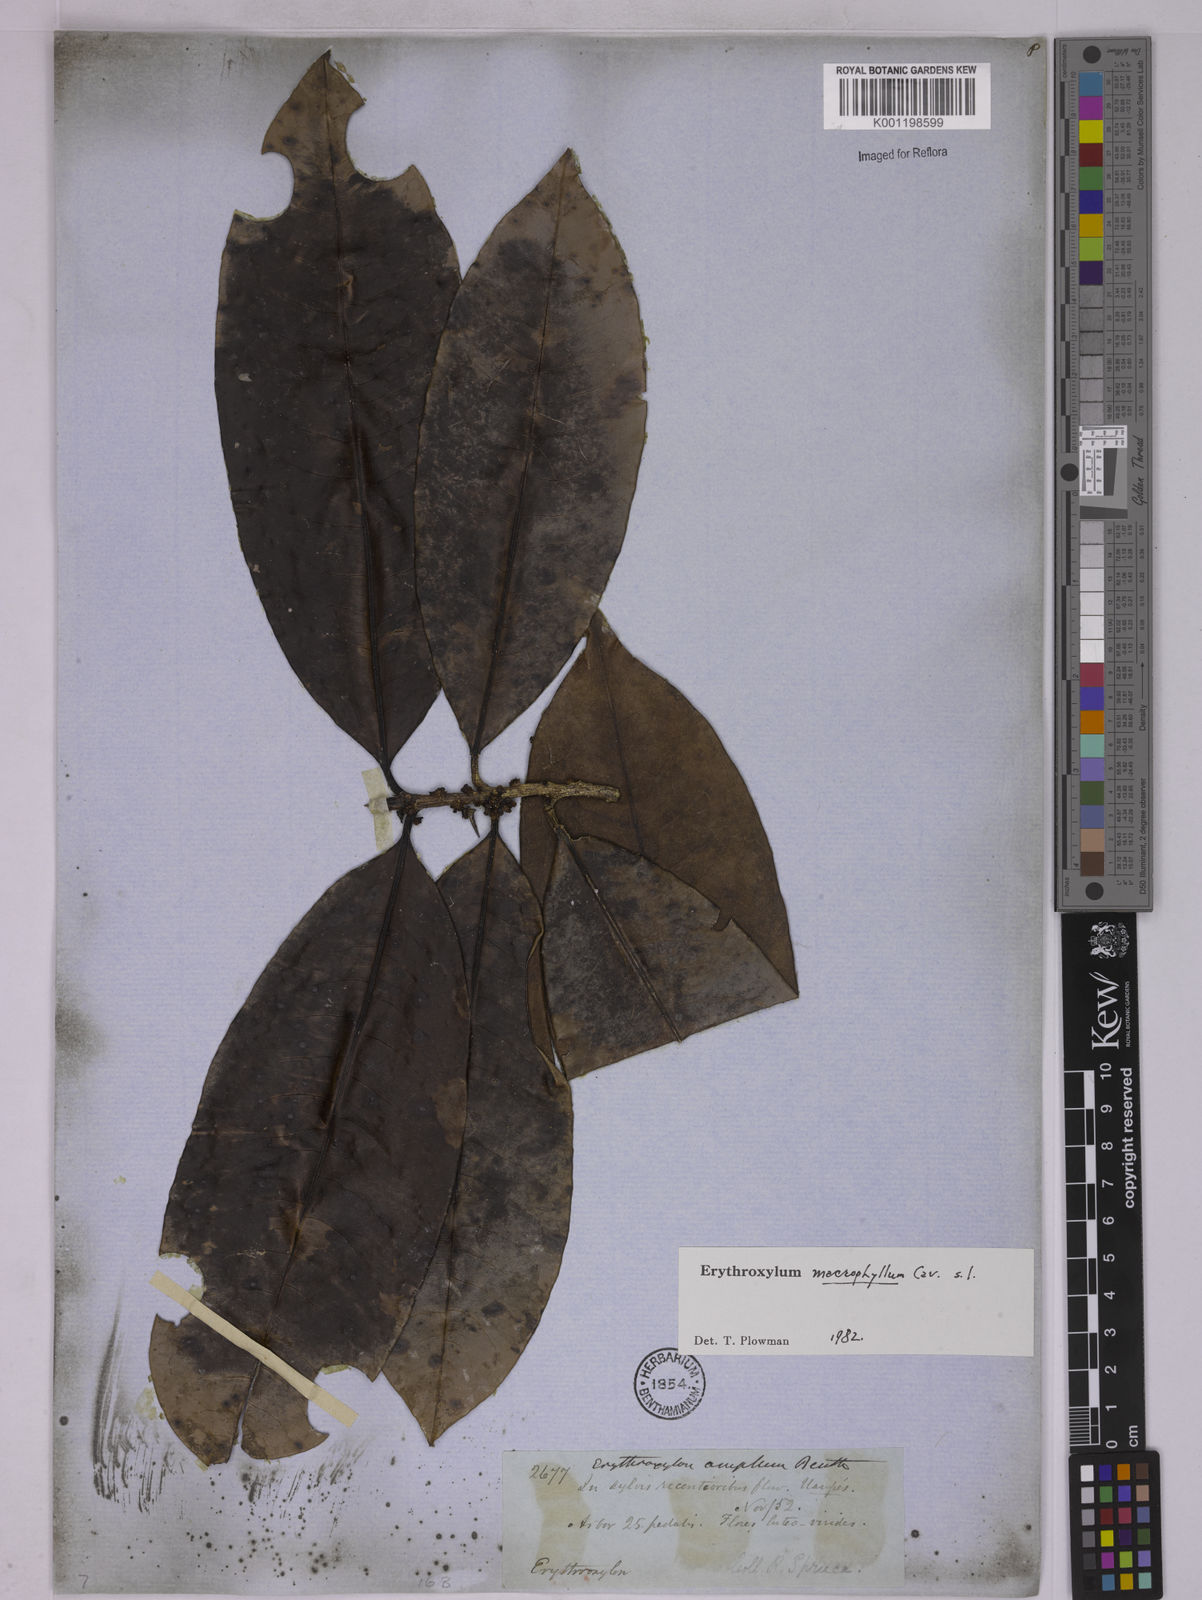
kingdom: Plantae
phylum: Tracheophyta
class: Magnoliopsida
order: Malpighiales
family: Erythroxylaceae
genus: Erythroxylum
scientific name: Erythroxylum macrophyllum
